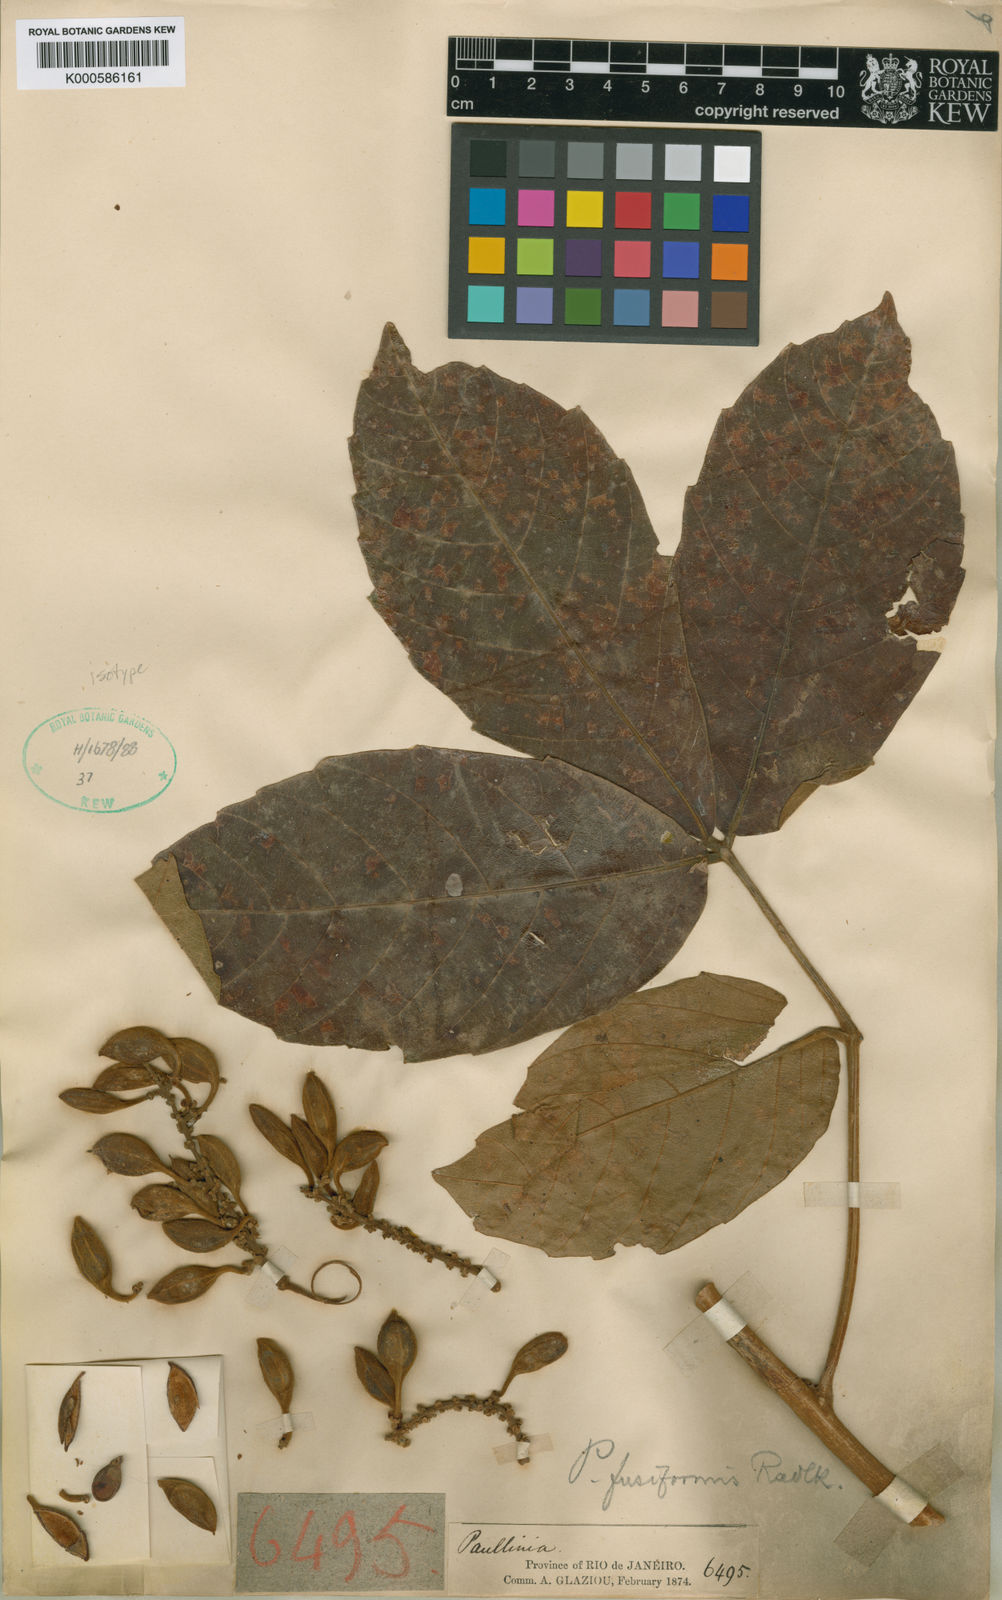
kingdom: Plantae
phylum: Tracheophyta
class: Magnoliopsida
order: Sapindales
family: Sapindaceae
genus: Paullinia
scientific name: Paullinia fusiformis
